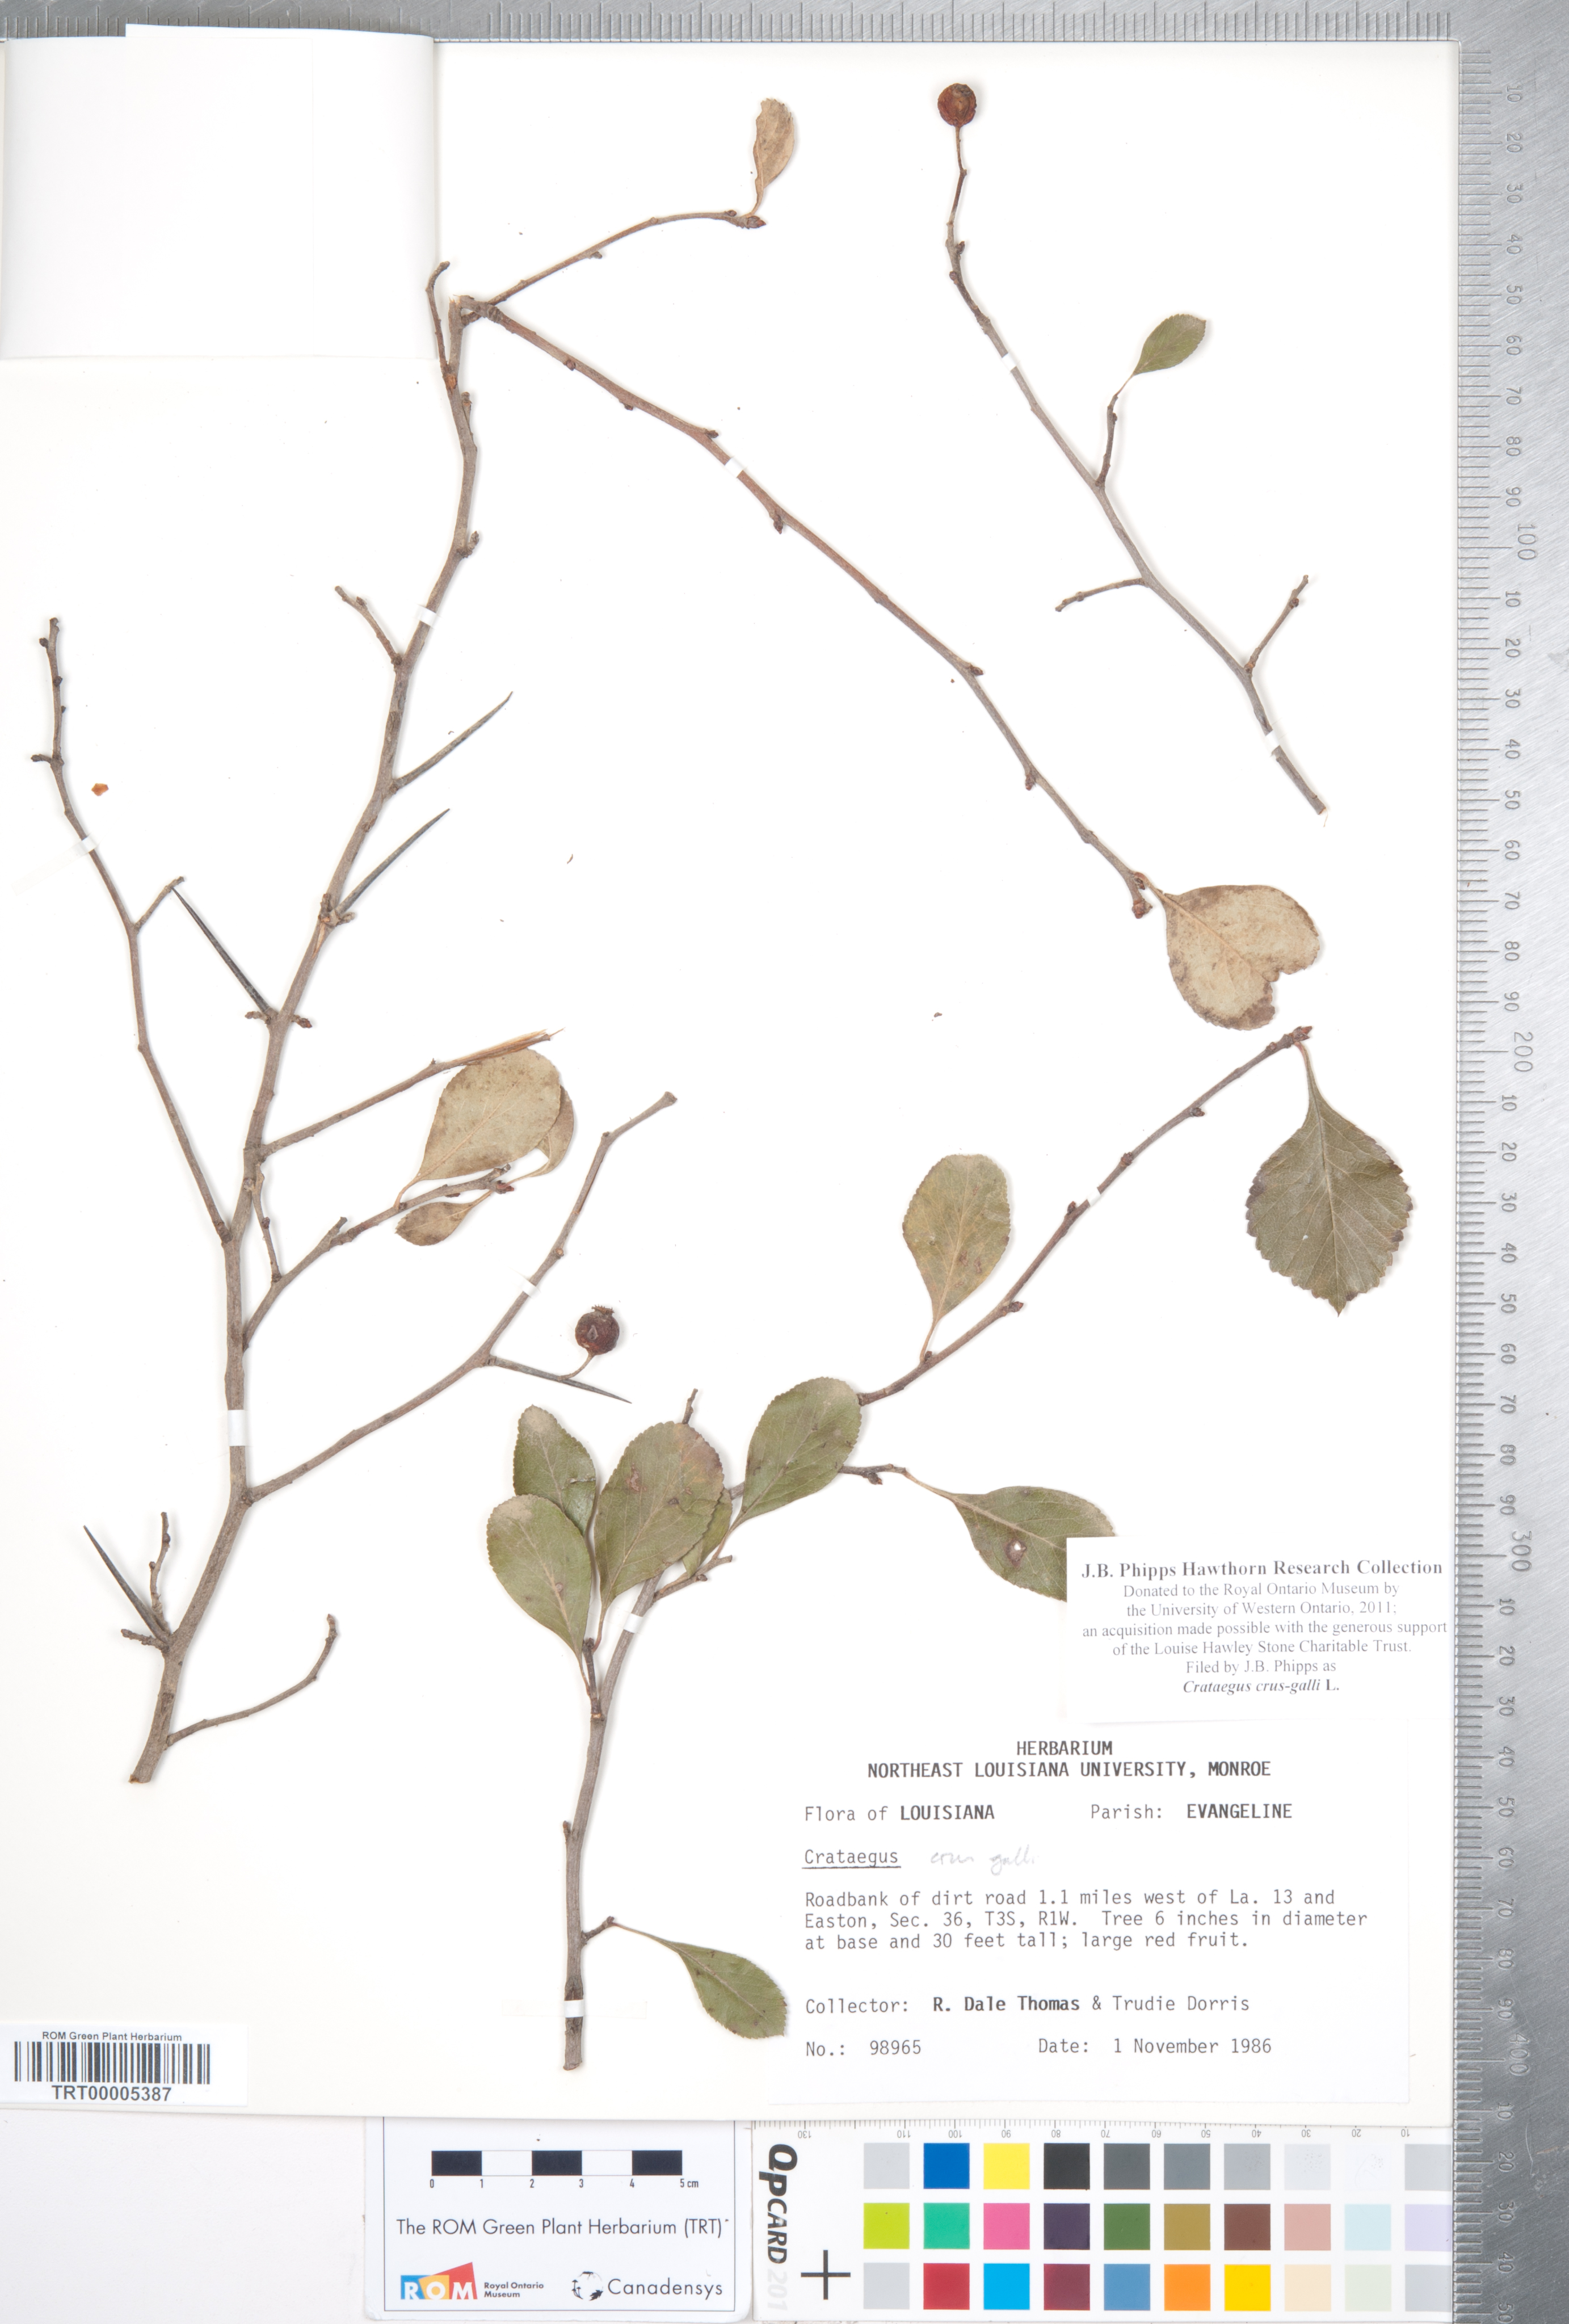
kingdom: Plantae
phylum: Tracheophyta
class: Magnoliopsida
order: Rosales
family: Rosaceae
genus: Crataegus
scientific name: Crataegus crus-galli
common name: Cockspurthorn
